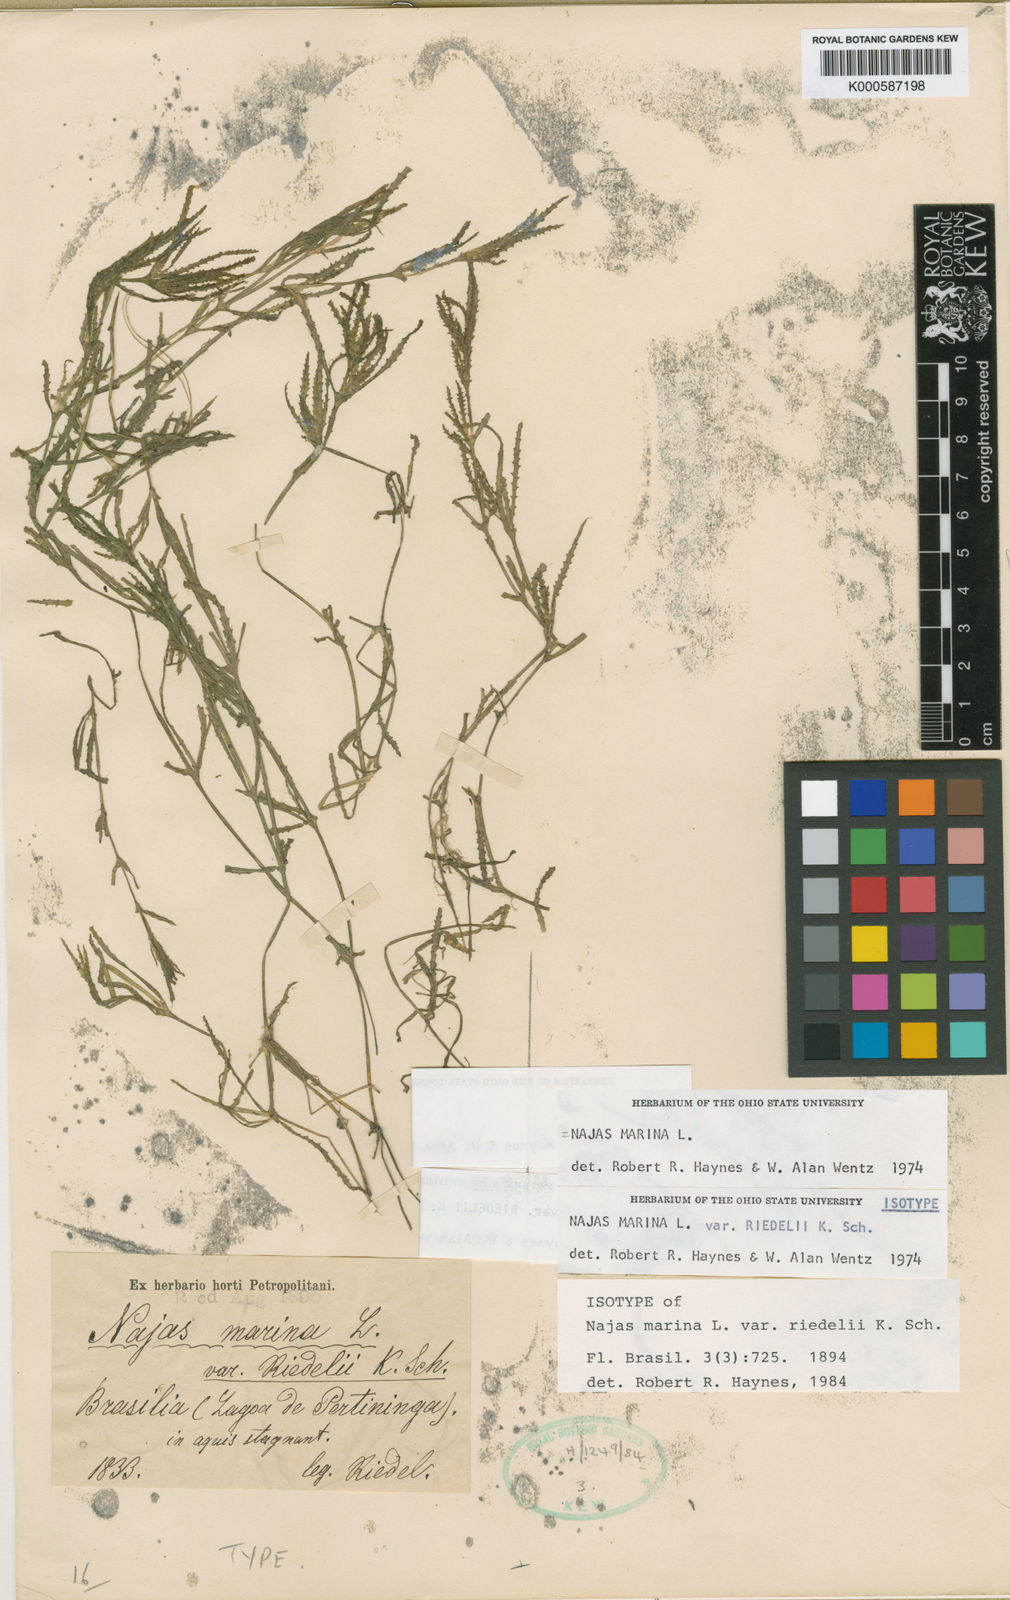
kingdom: Plantae
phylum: Tracheophyta
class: Liliopsida
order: Alismatales
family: Hydrocharitaceae
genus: Najas
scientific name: Najas marina
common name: Holly-leaved naiad
